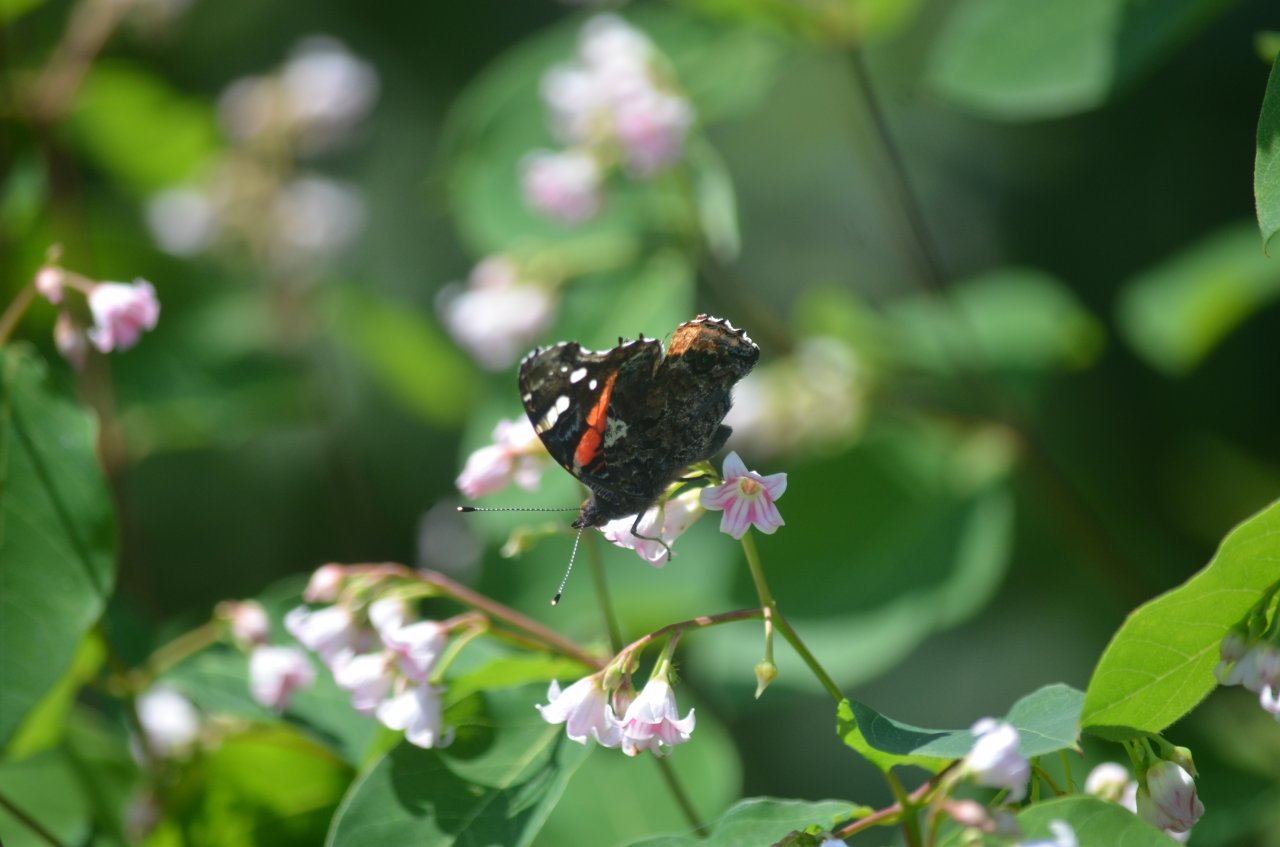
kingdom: Animalia
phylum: Arthropoda
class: Insecta
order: Lepidoptera
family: Nymphalidae
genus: Vanessa
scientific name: Vanessa atalanta
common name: Red Admiral
